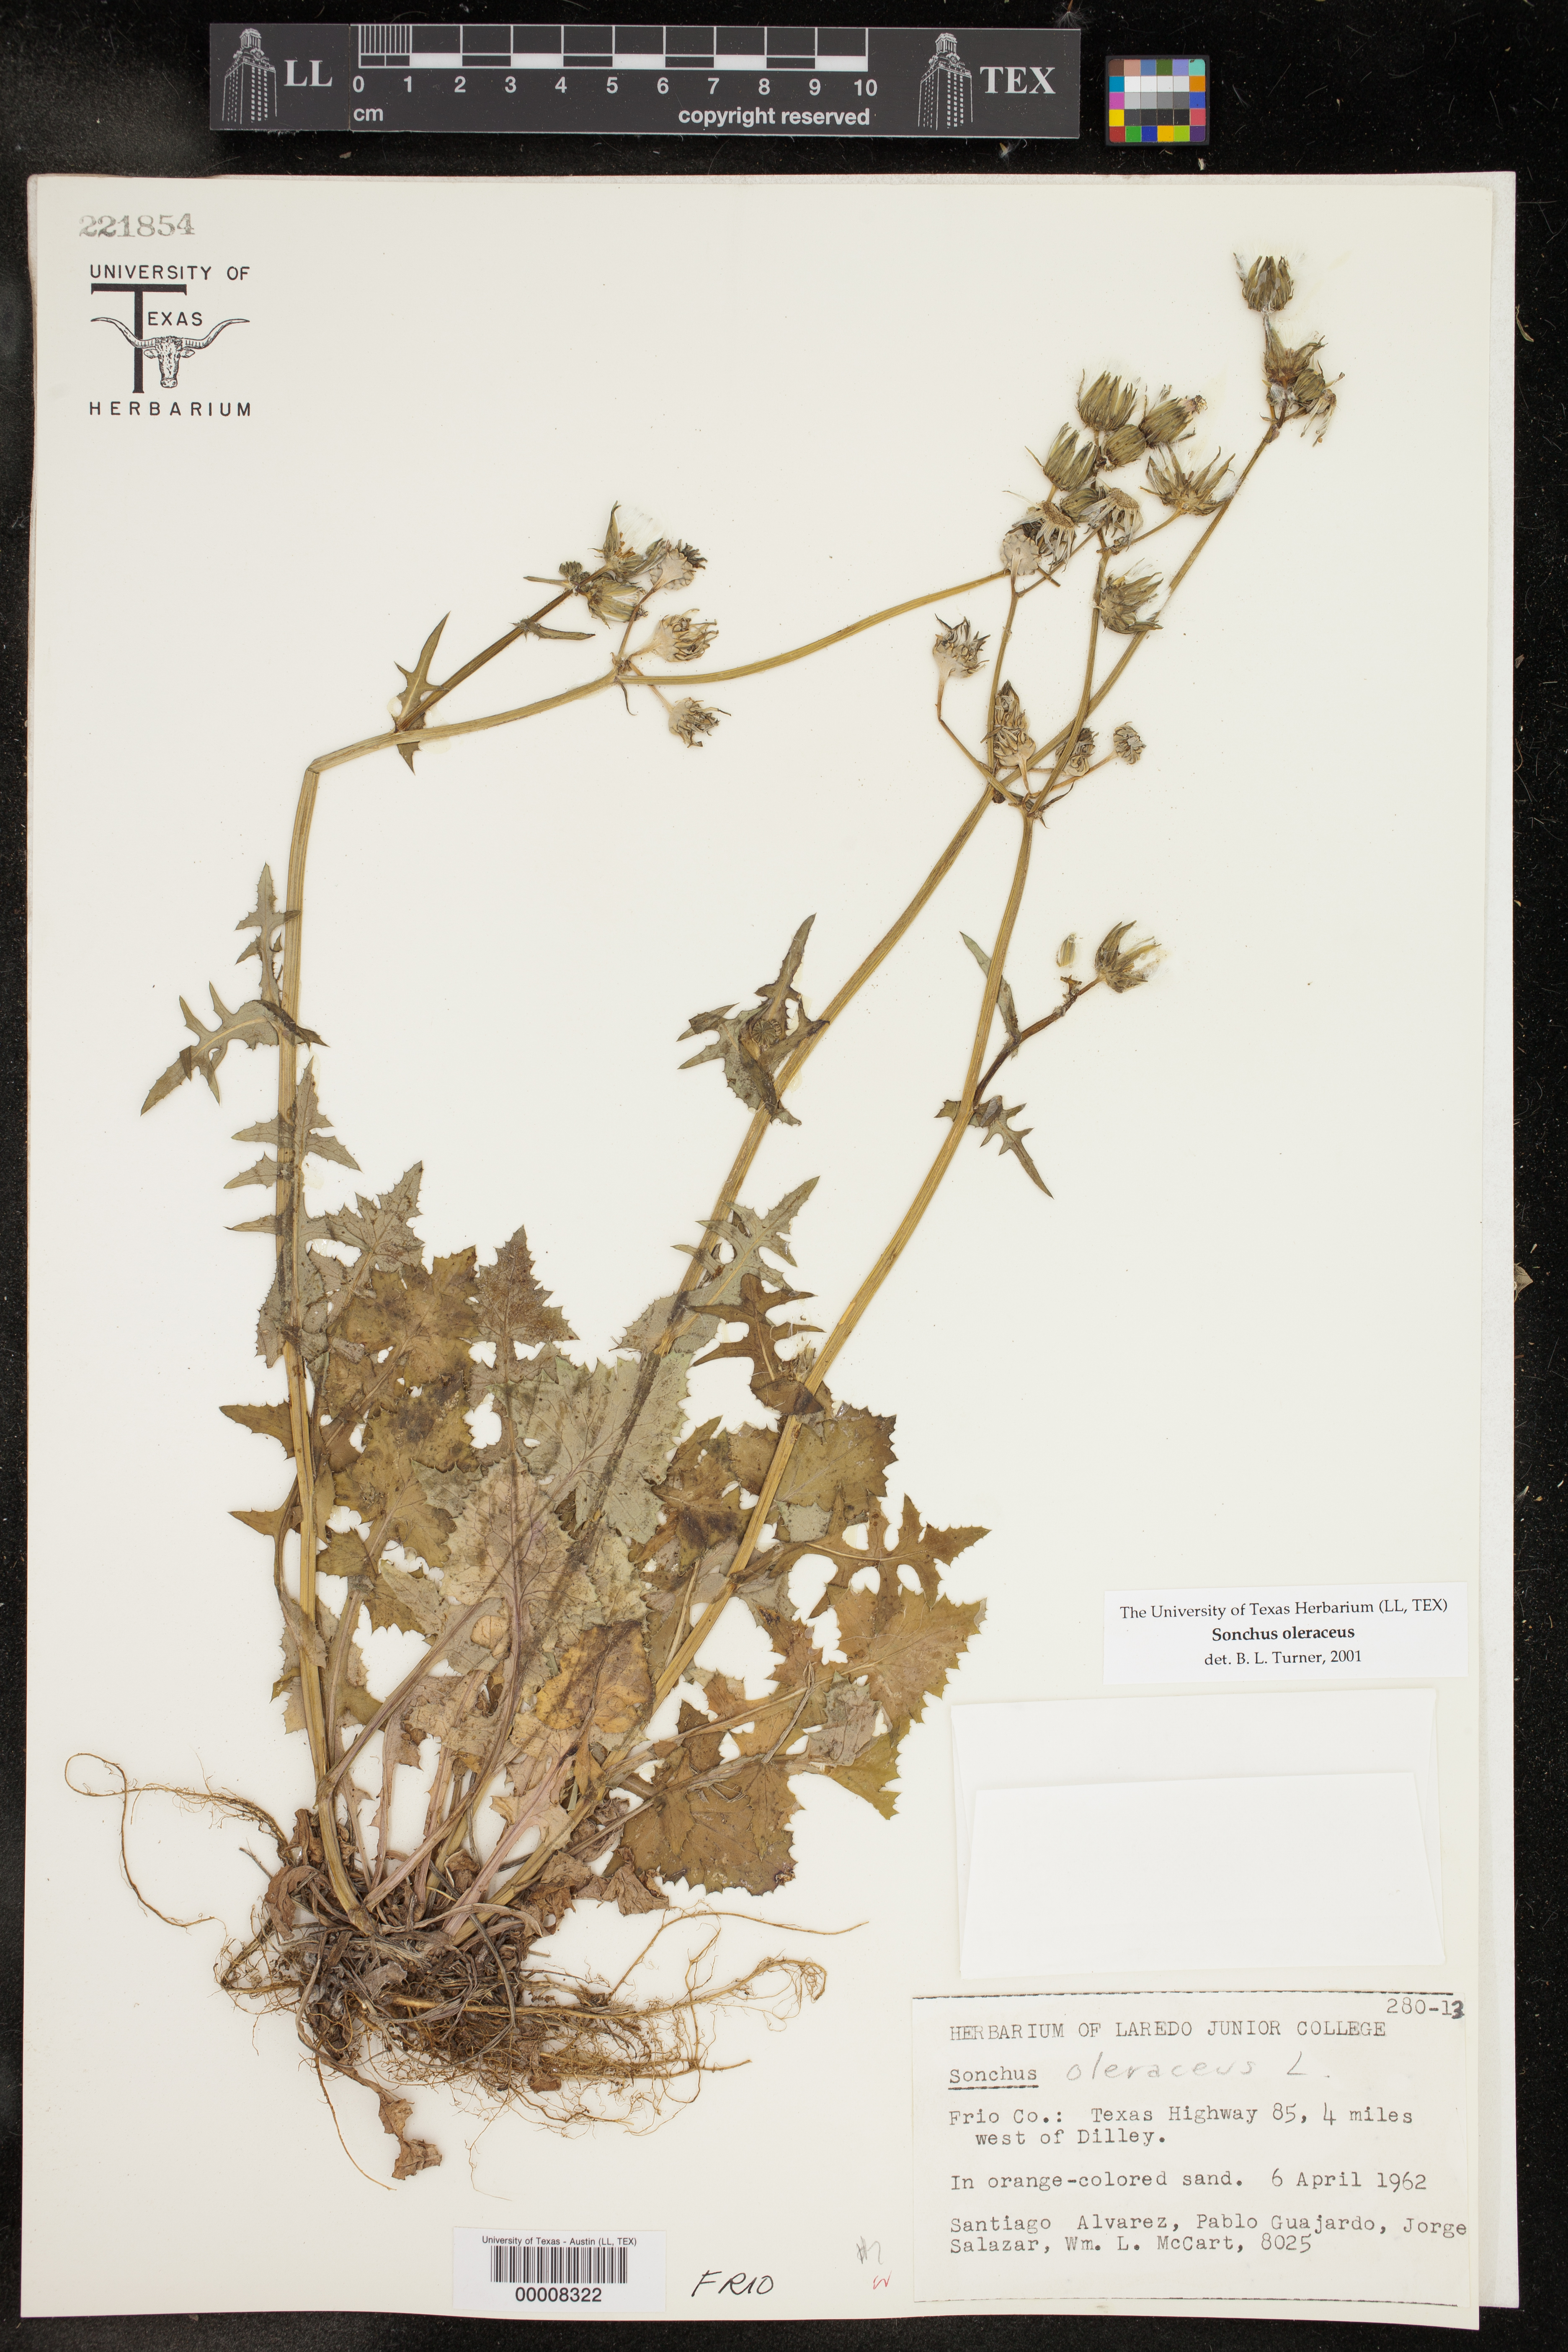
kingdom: Plantae
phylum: Tracheophyta
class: Magnoliopsida
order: Asterales
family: Asteraceae
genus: Sonchus
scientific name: Sonchus oleraceus
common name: Common sowthistle
